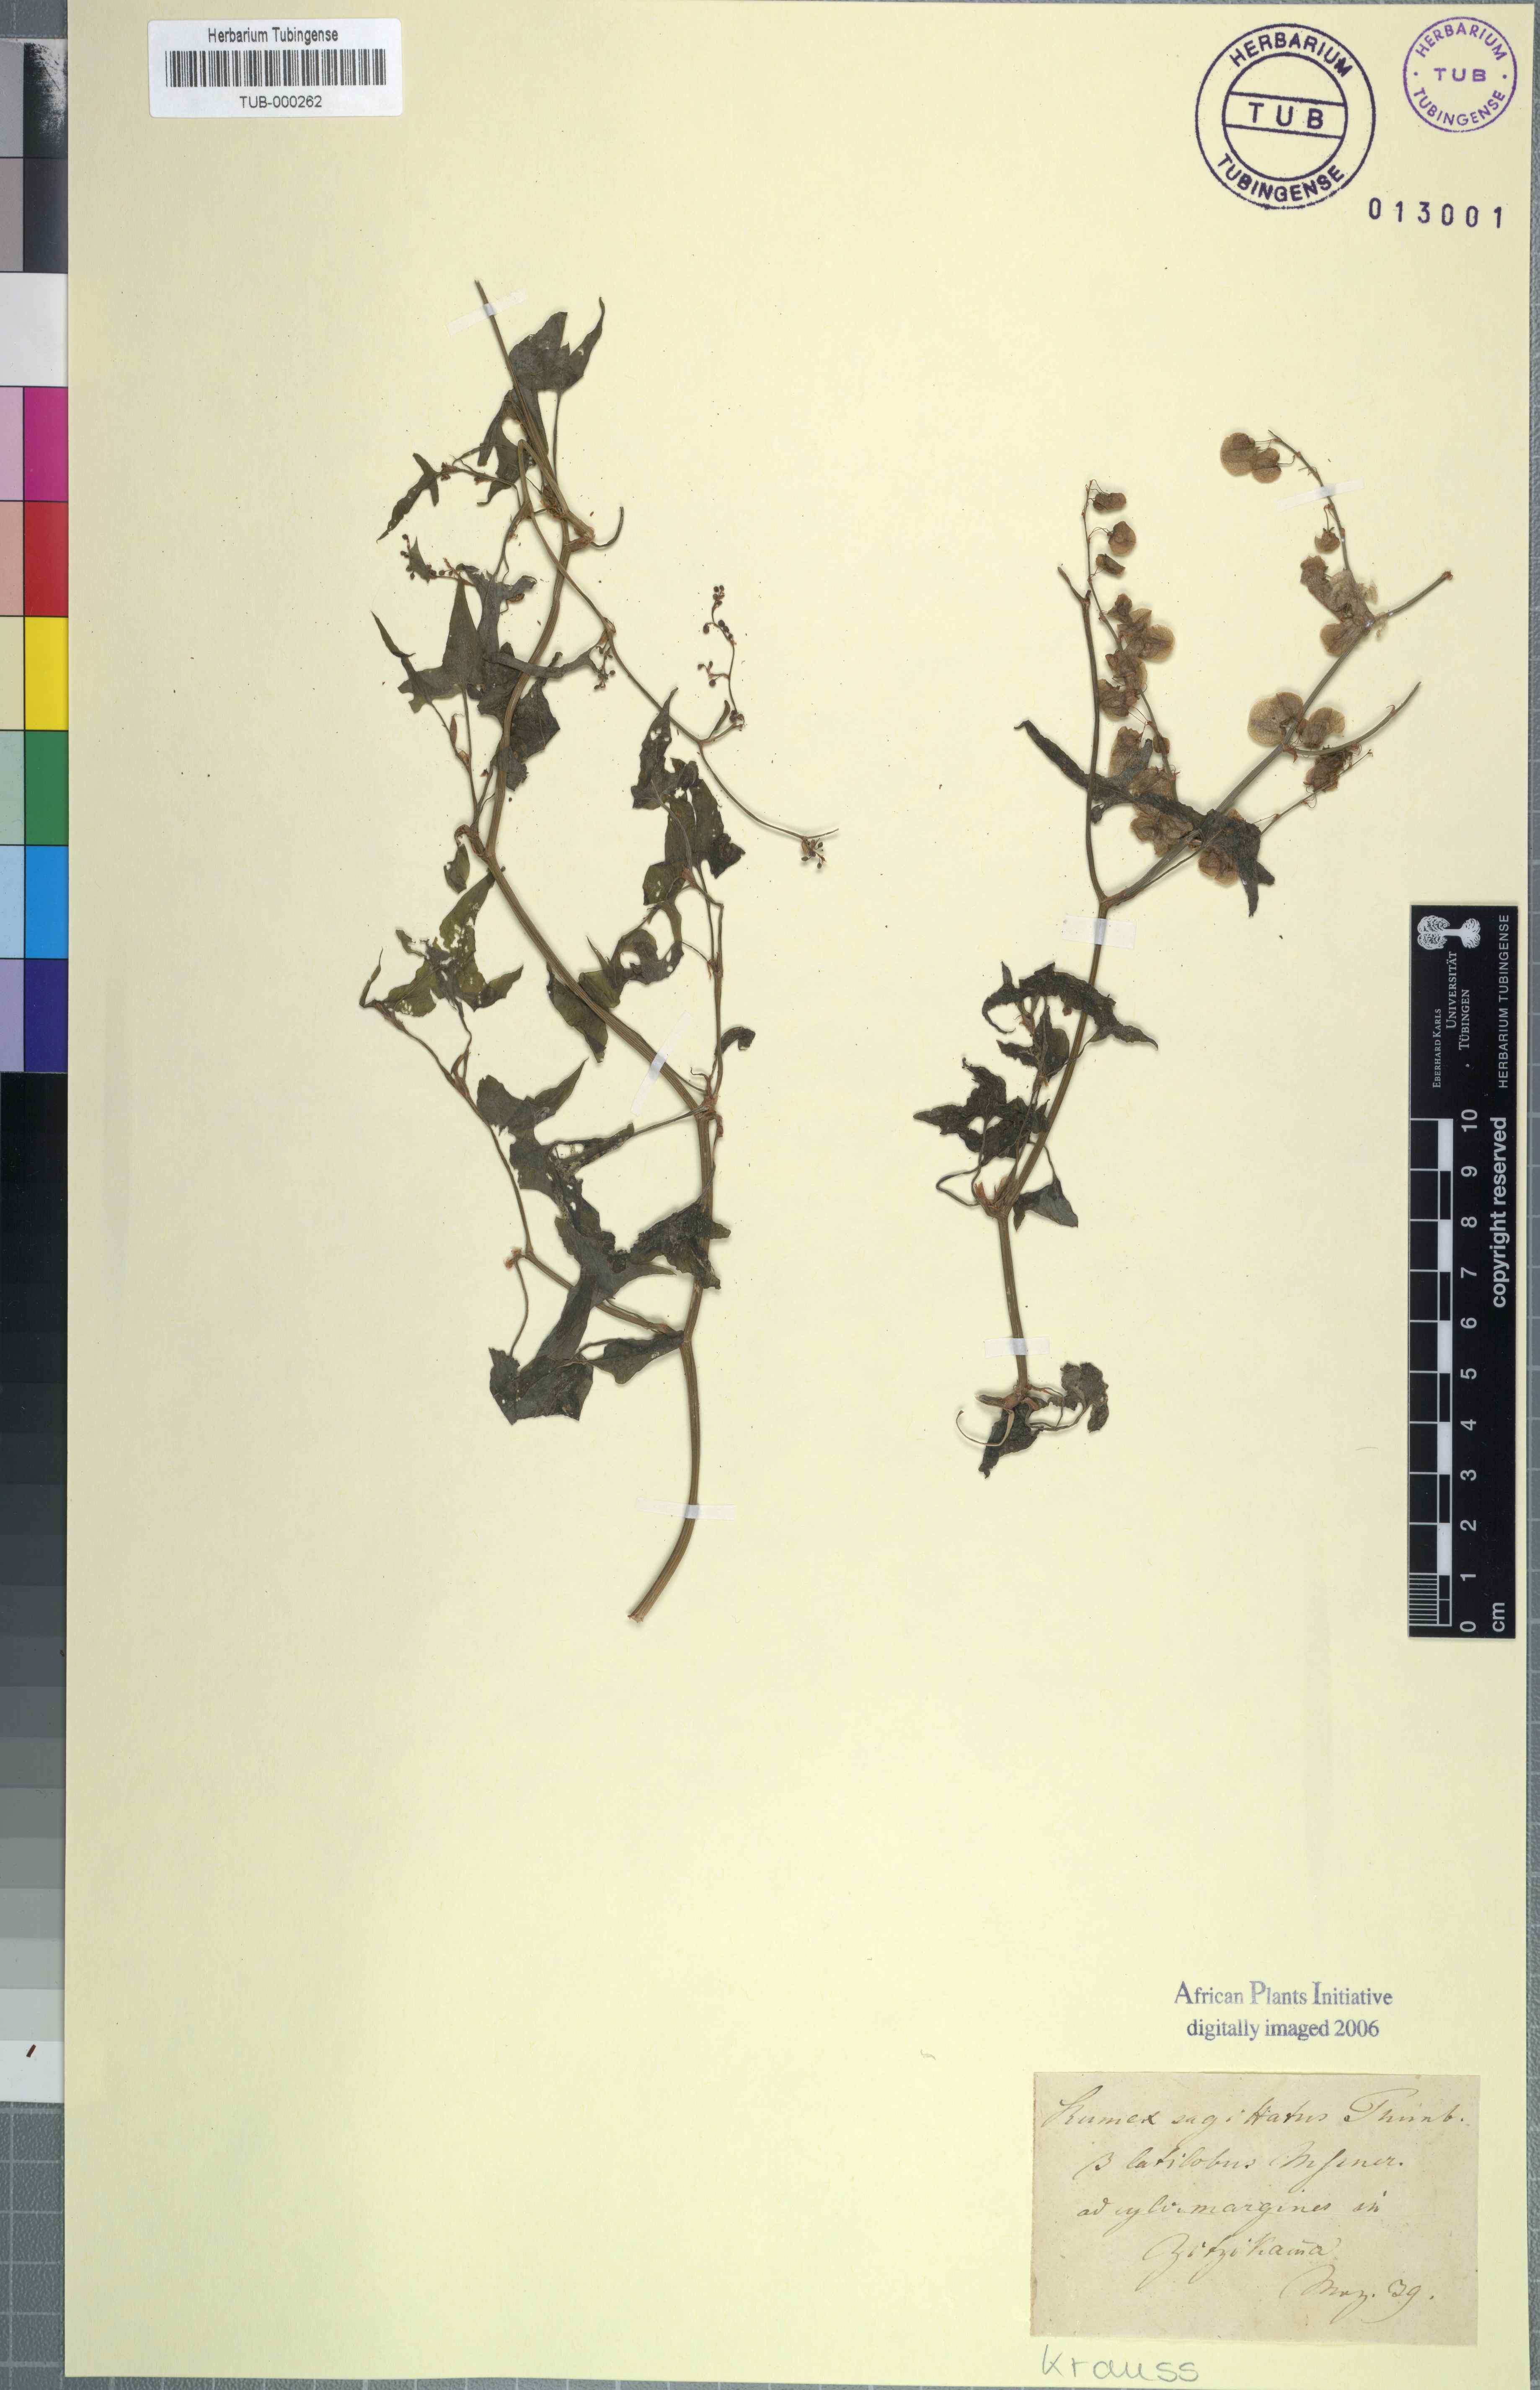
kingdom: Plantae
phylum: Tracheophyta
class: Magnoliopsida
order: Caryophyllales
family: Polygonaceae
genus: Rumex
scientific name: Rumex sagittatus
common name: Climbing dock
